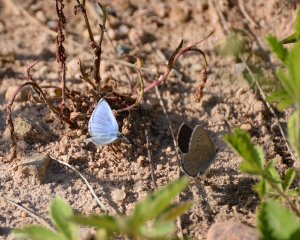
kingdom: Animalia
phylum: Arthropoda
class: Insecta
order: Lepidoptera
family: Lycaenidae
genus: Glaucopsyche
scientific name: Glaucopsyche lygdamus
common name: Silvery Blue
